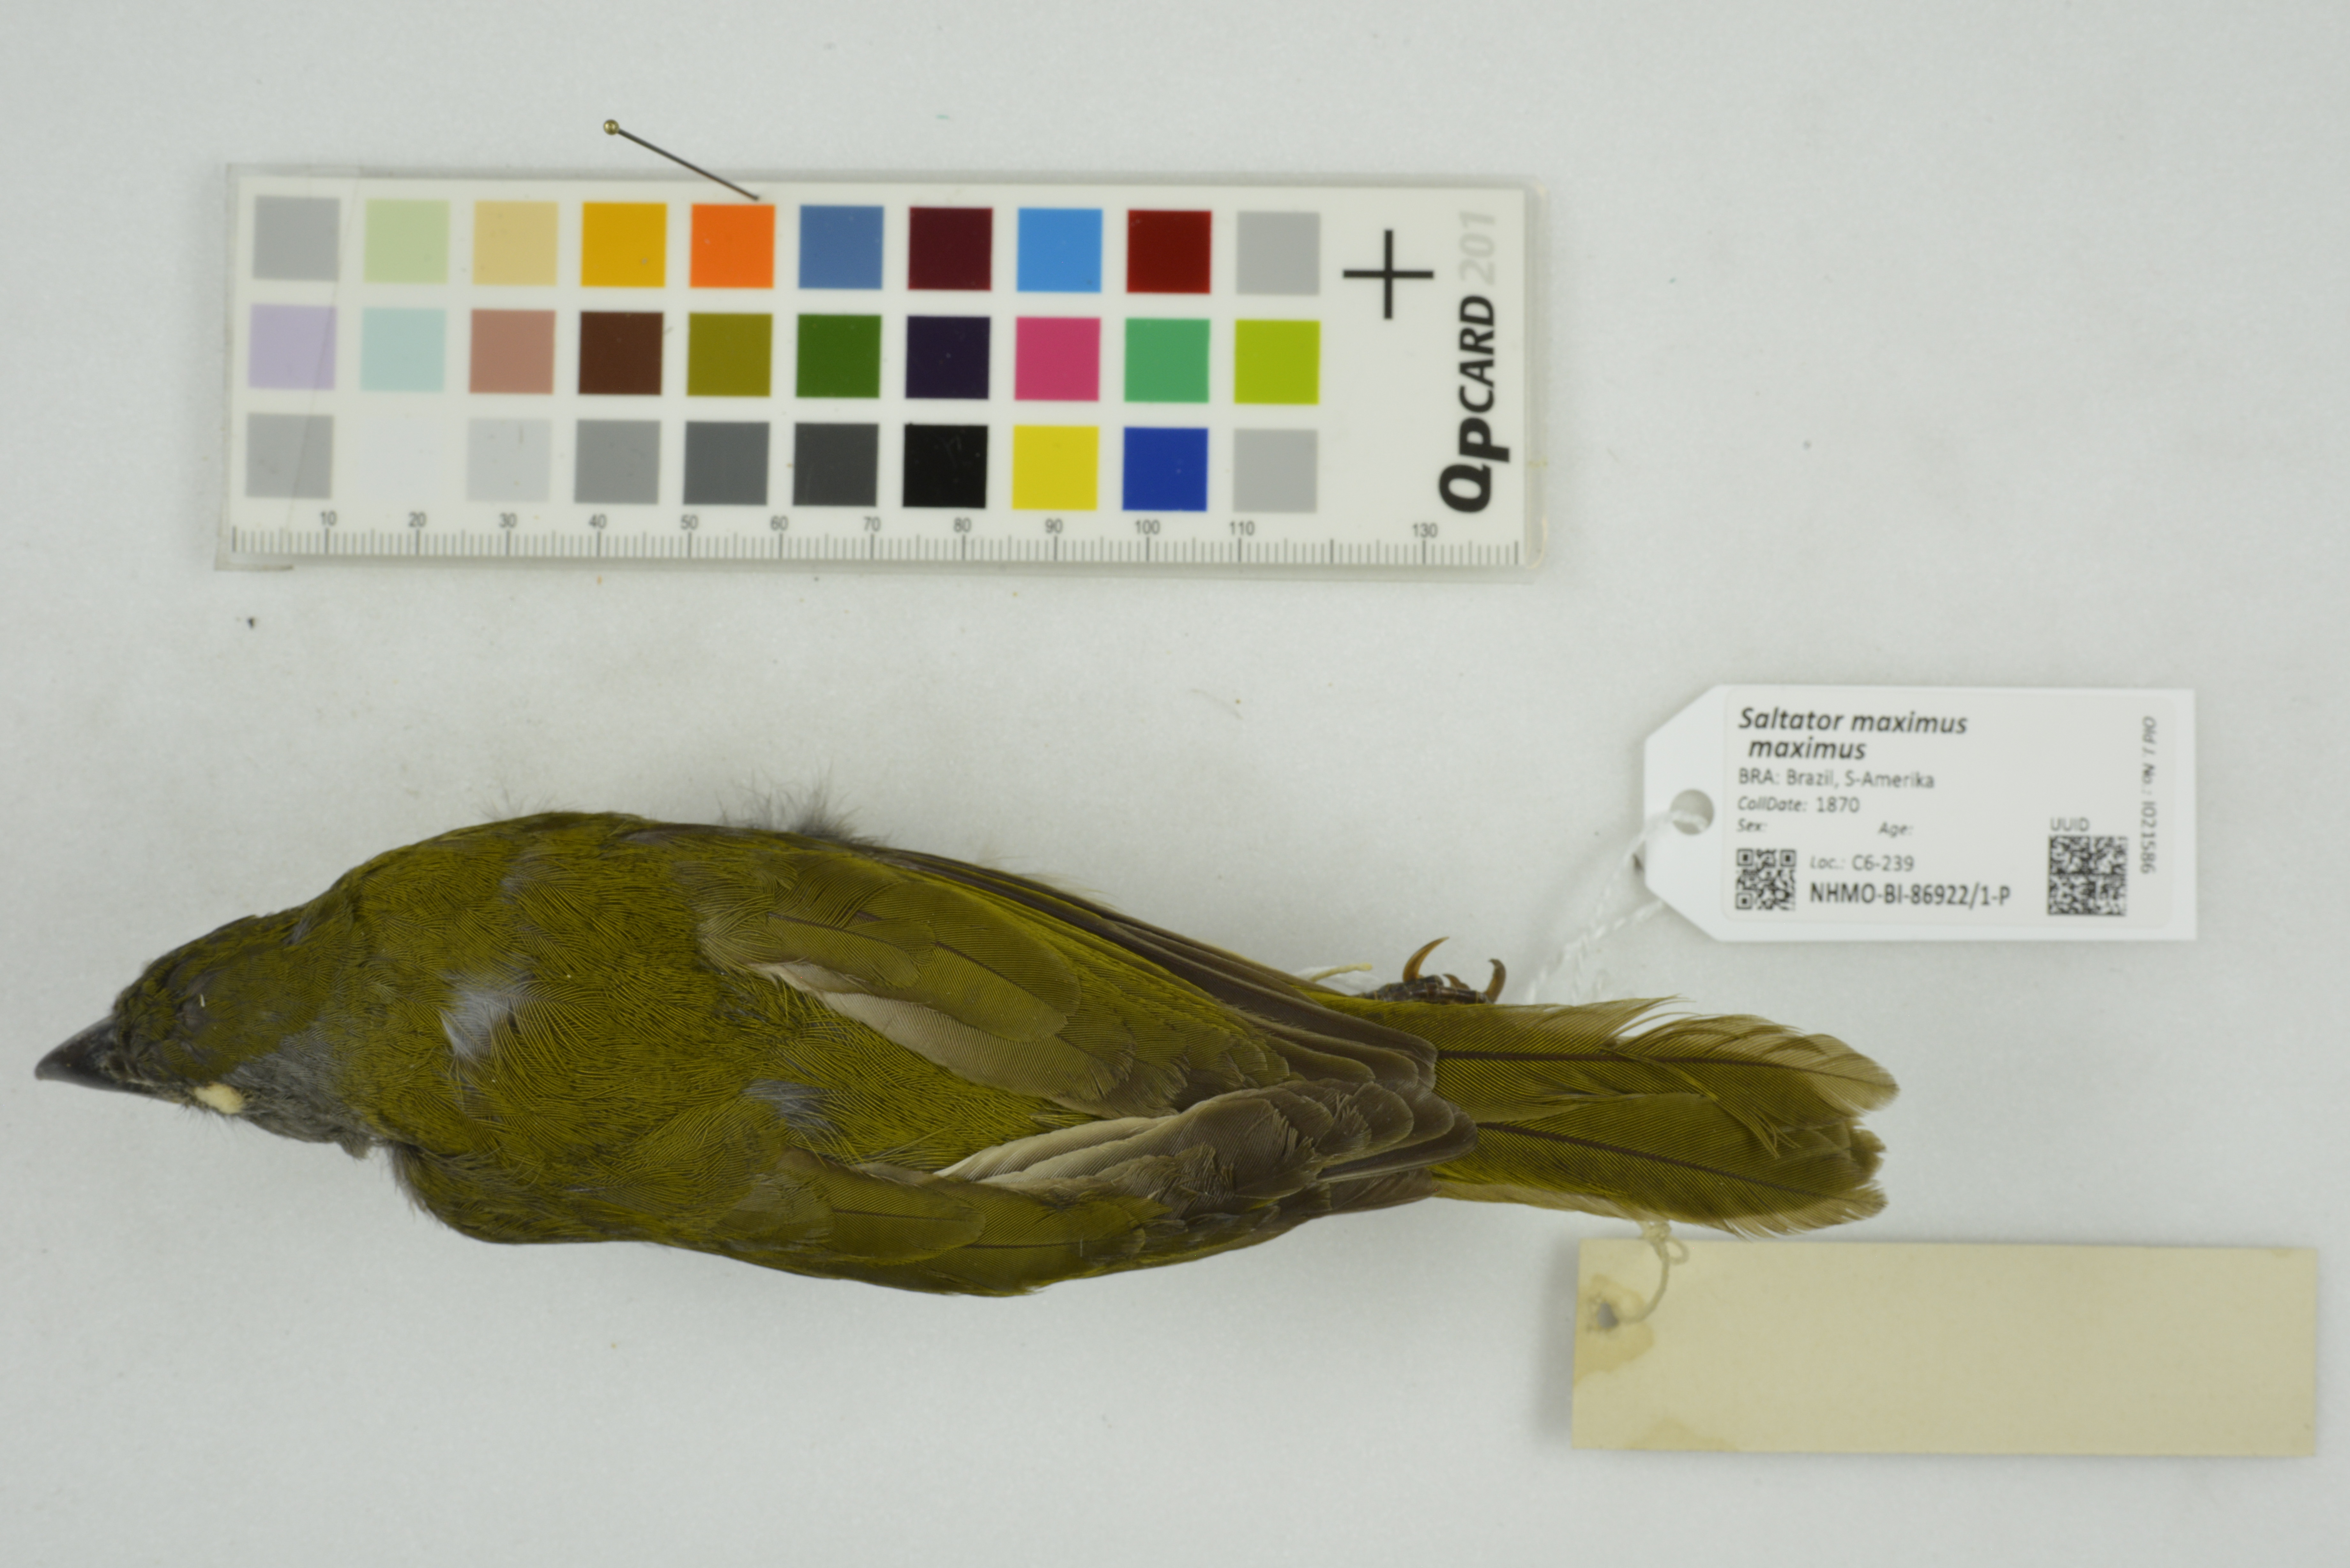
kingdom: Animalia
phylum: Chordata
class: Aves
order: Passeriformes
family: Thraupidae
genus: Saltator
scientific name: Saltator maximus
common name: Buff-throated saltator
